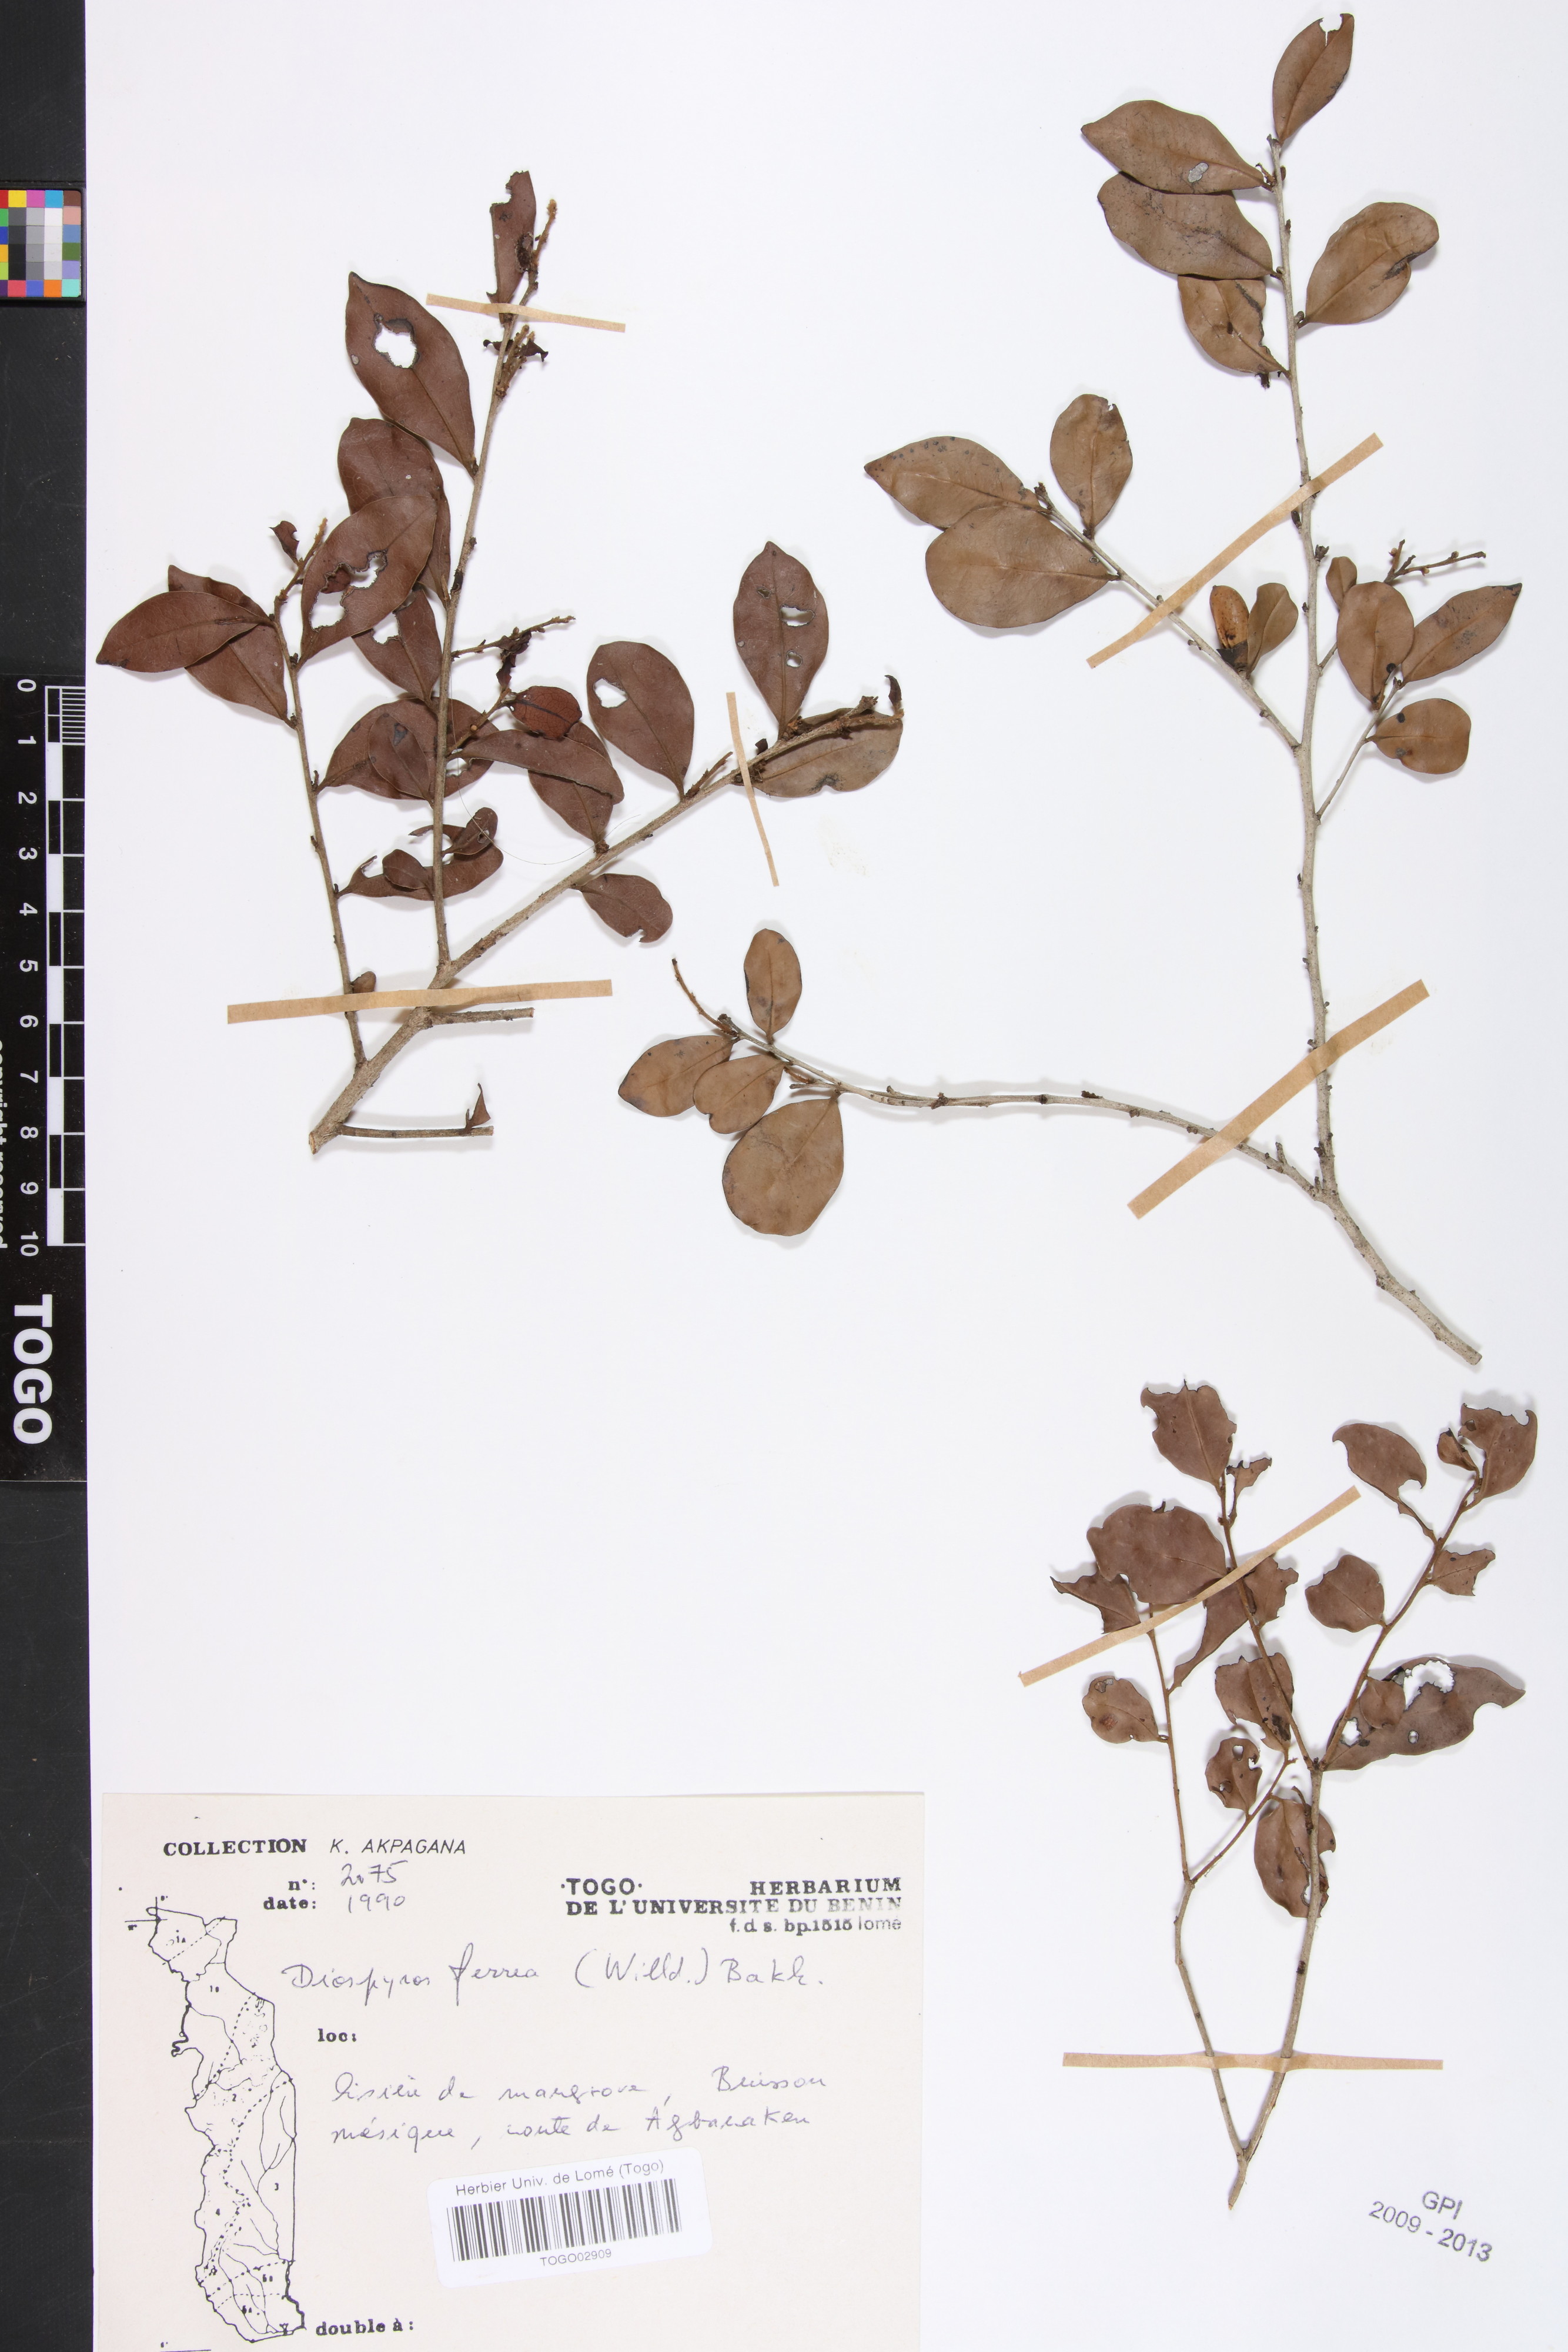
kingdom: Plantae
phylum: Tracheophyta
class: Magnoliopsida
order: Ericales
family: Ebenaceae
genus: Diospyros
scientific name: Diospyros ferrea
